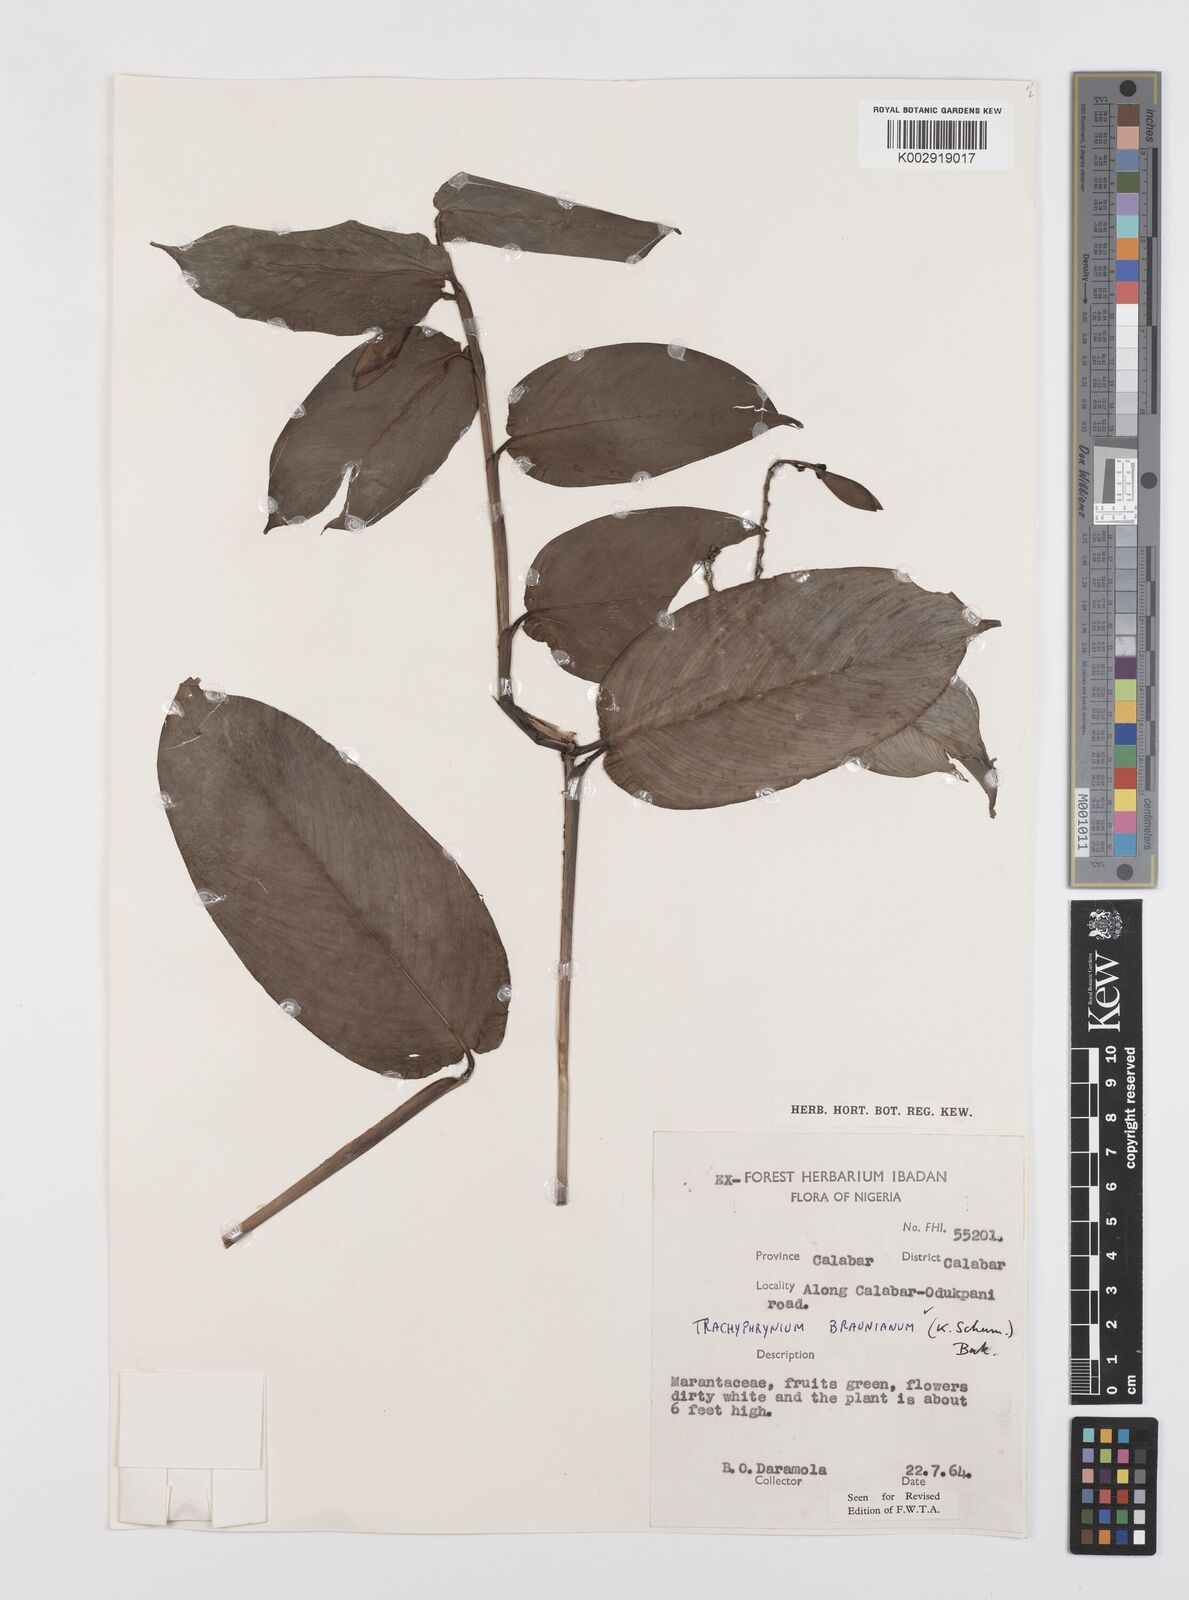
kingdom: Plantae
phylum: Tracheophyta
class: Liliopsida
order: Zingiberales
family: Marantaceae
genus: Trachyphrynium
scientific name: Trachyphrynium braunianum
